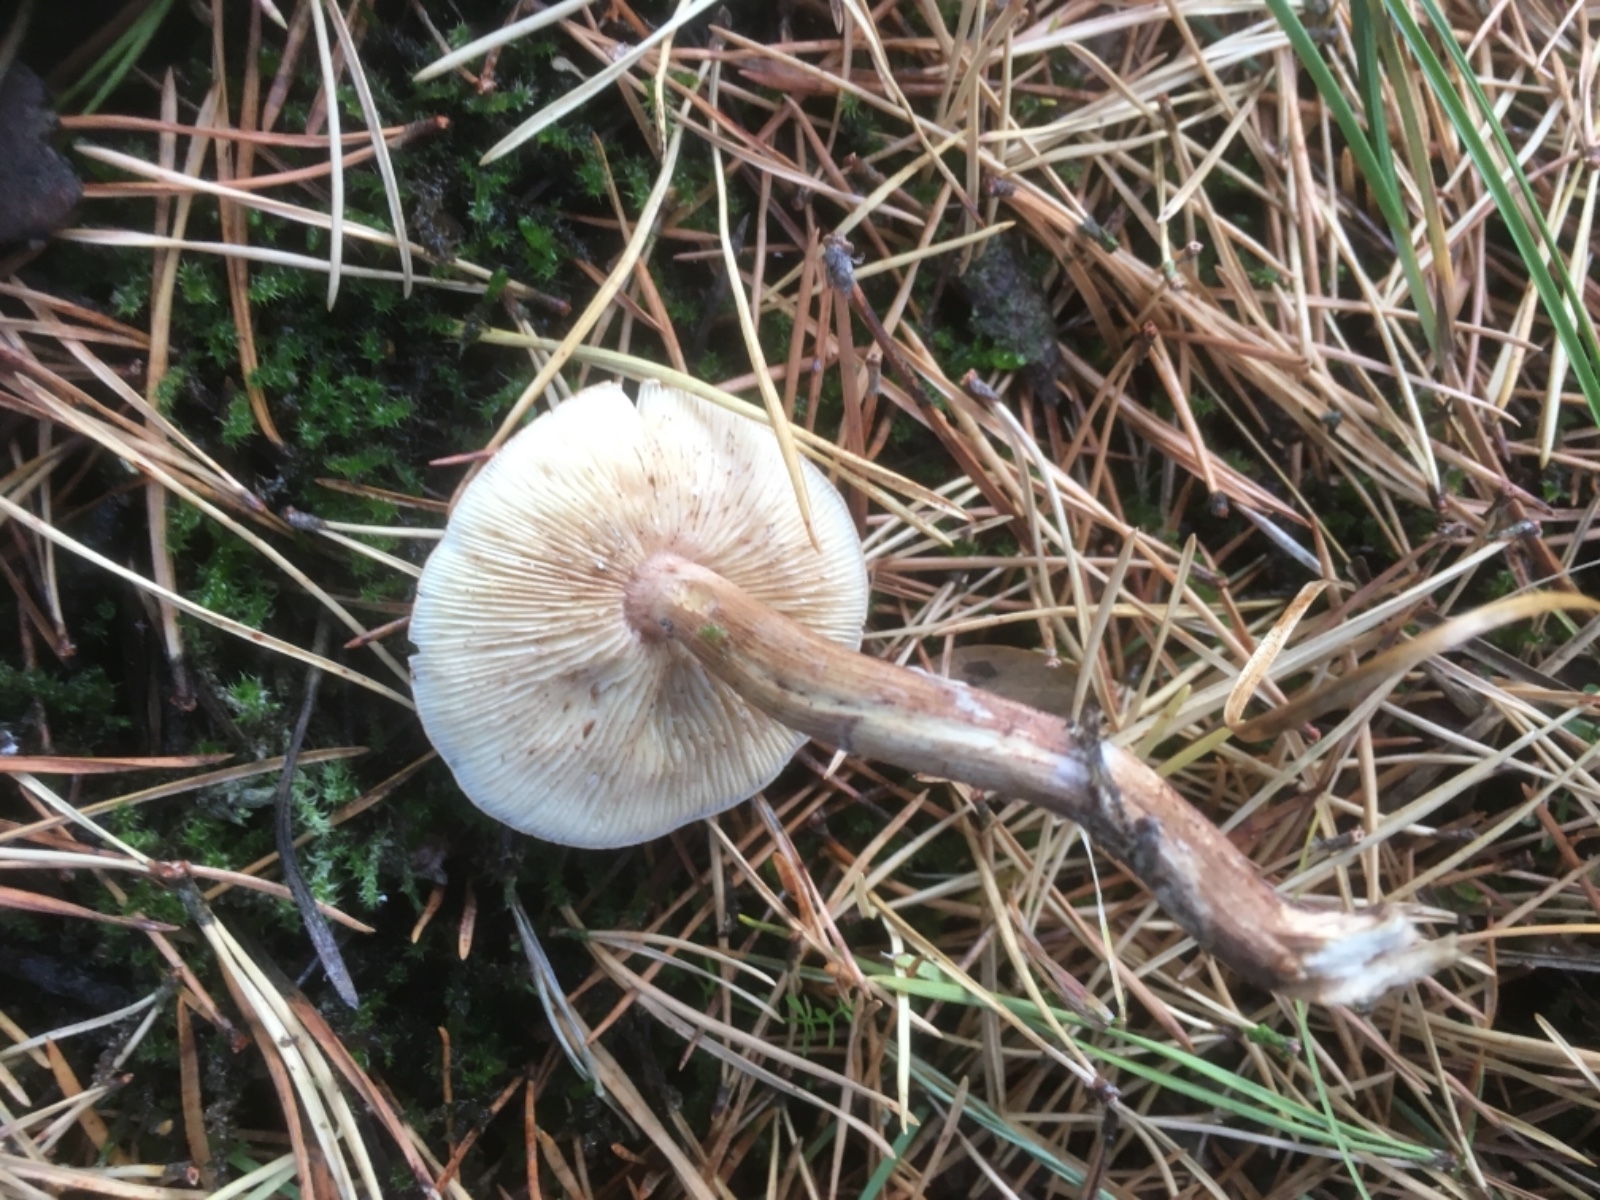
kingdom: Fungi
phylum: Basidiomycota
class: Agaricomycetes
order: Agaricales
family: Tricholomataceae
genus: Tricholoma
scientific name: Tricholoma
